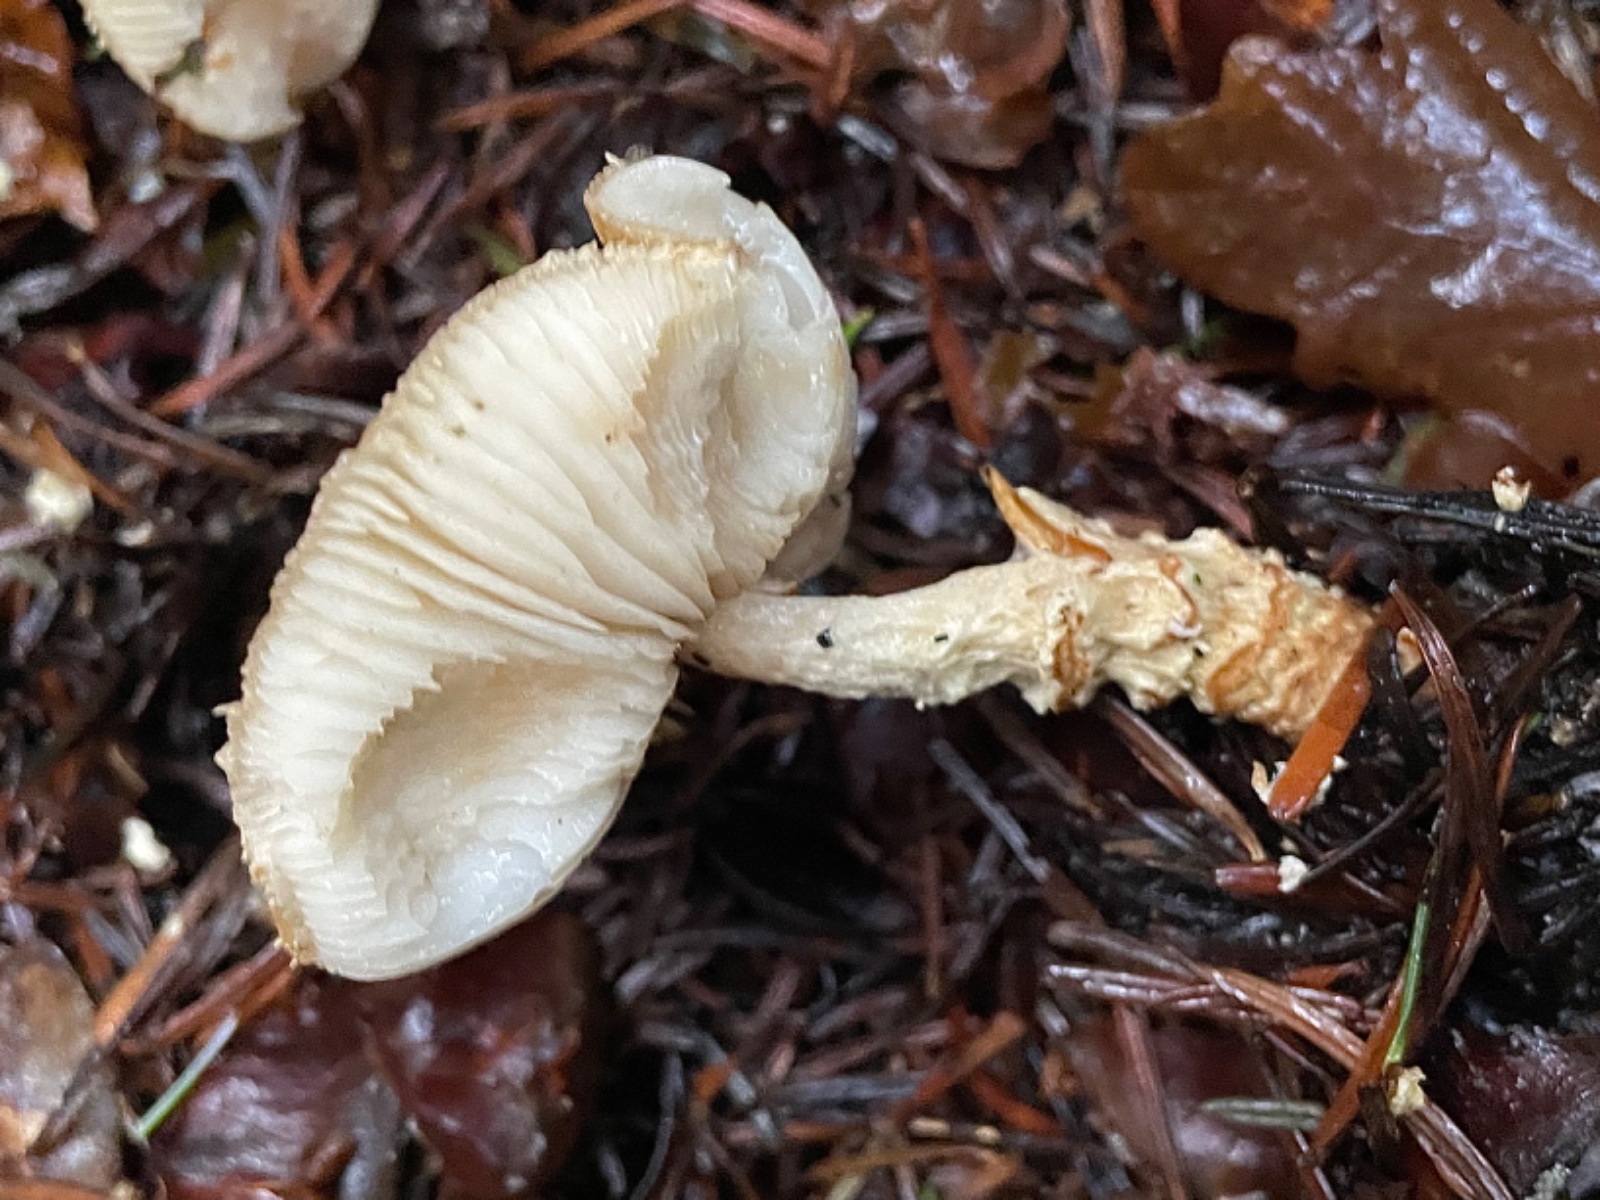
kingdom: Fungi
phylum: Basidiomycota
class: Agaricomycetes
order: Agaricales
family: Agaricaceae
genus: Lepiota
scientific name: Lepiota magnispora
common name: gulfnugget parasolhat
